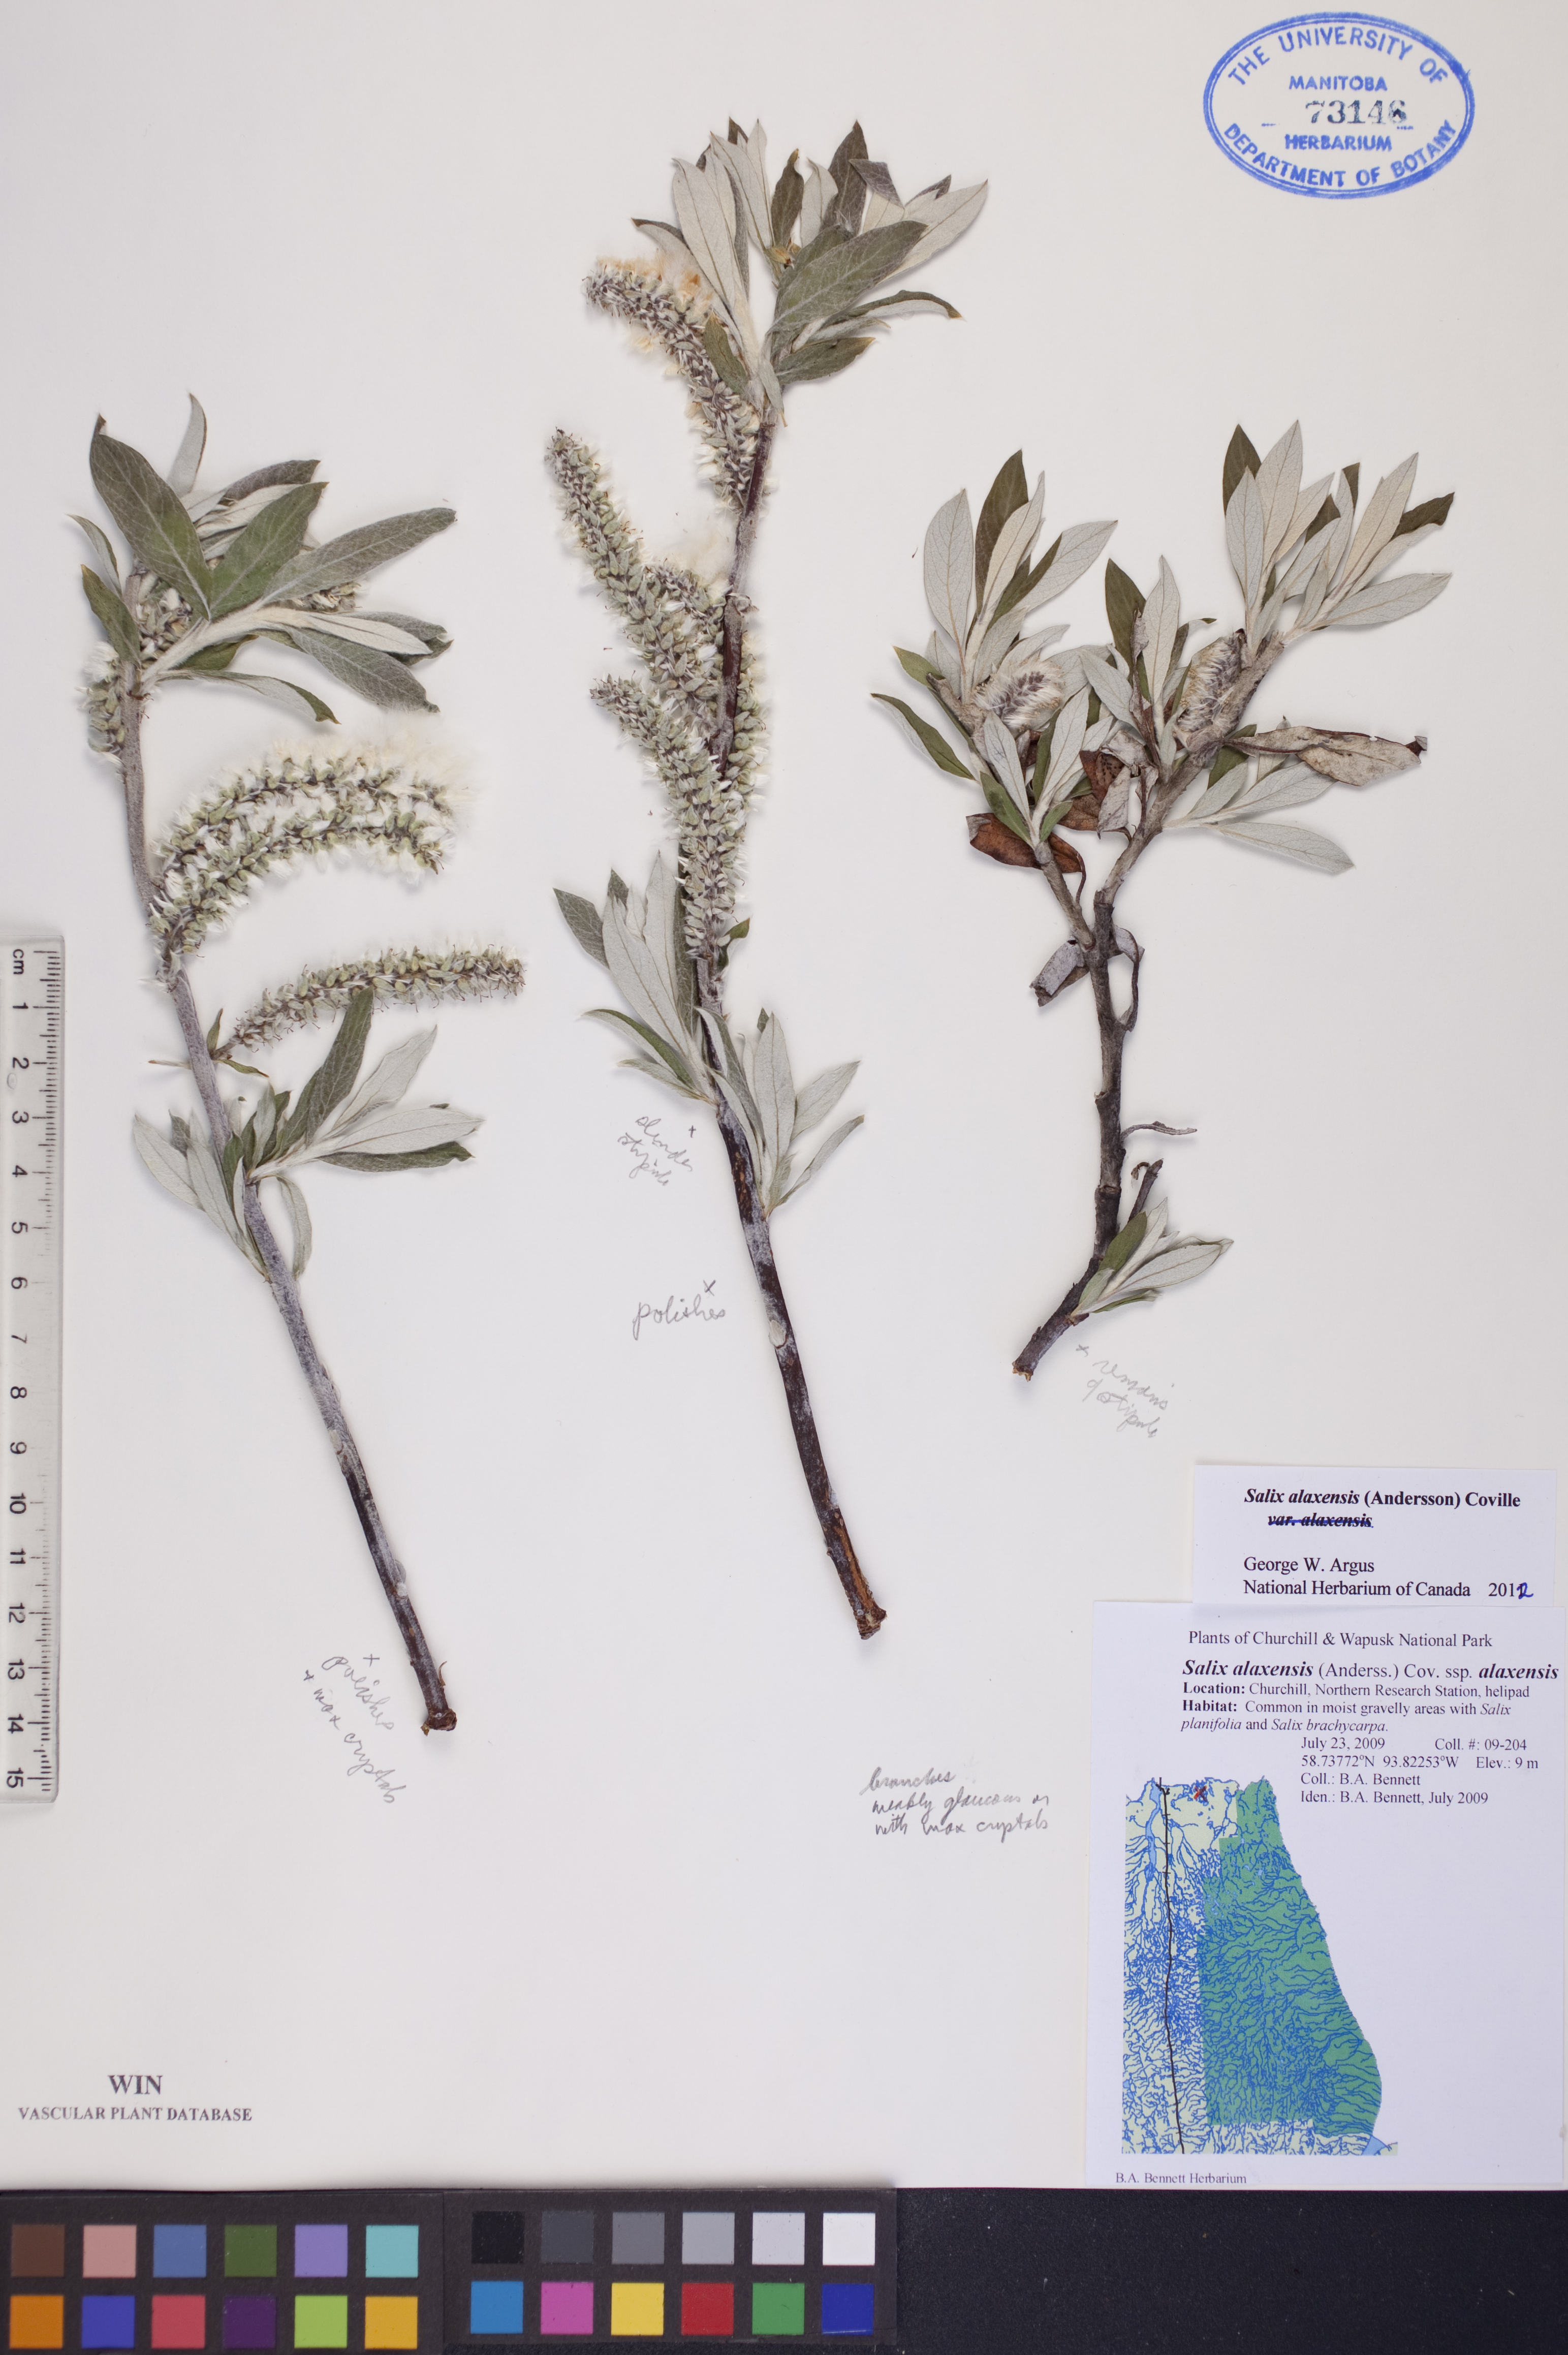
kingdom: Plantae
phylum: Tracheophyta
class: Magnoliopsida
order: Malpighiales
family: Salicaceae
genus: Salix
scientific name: Salix alaxensis
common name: Feltleaf willow
